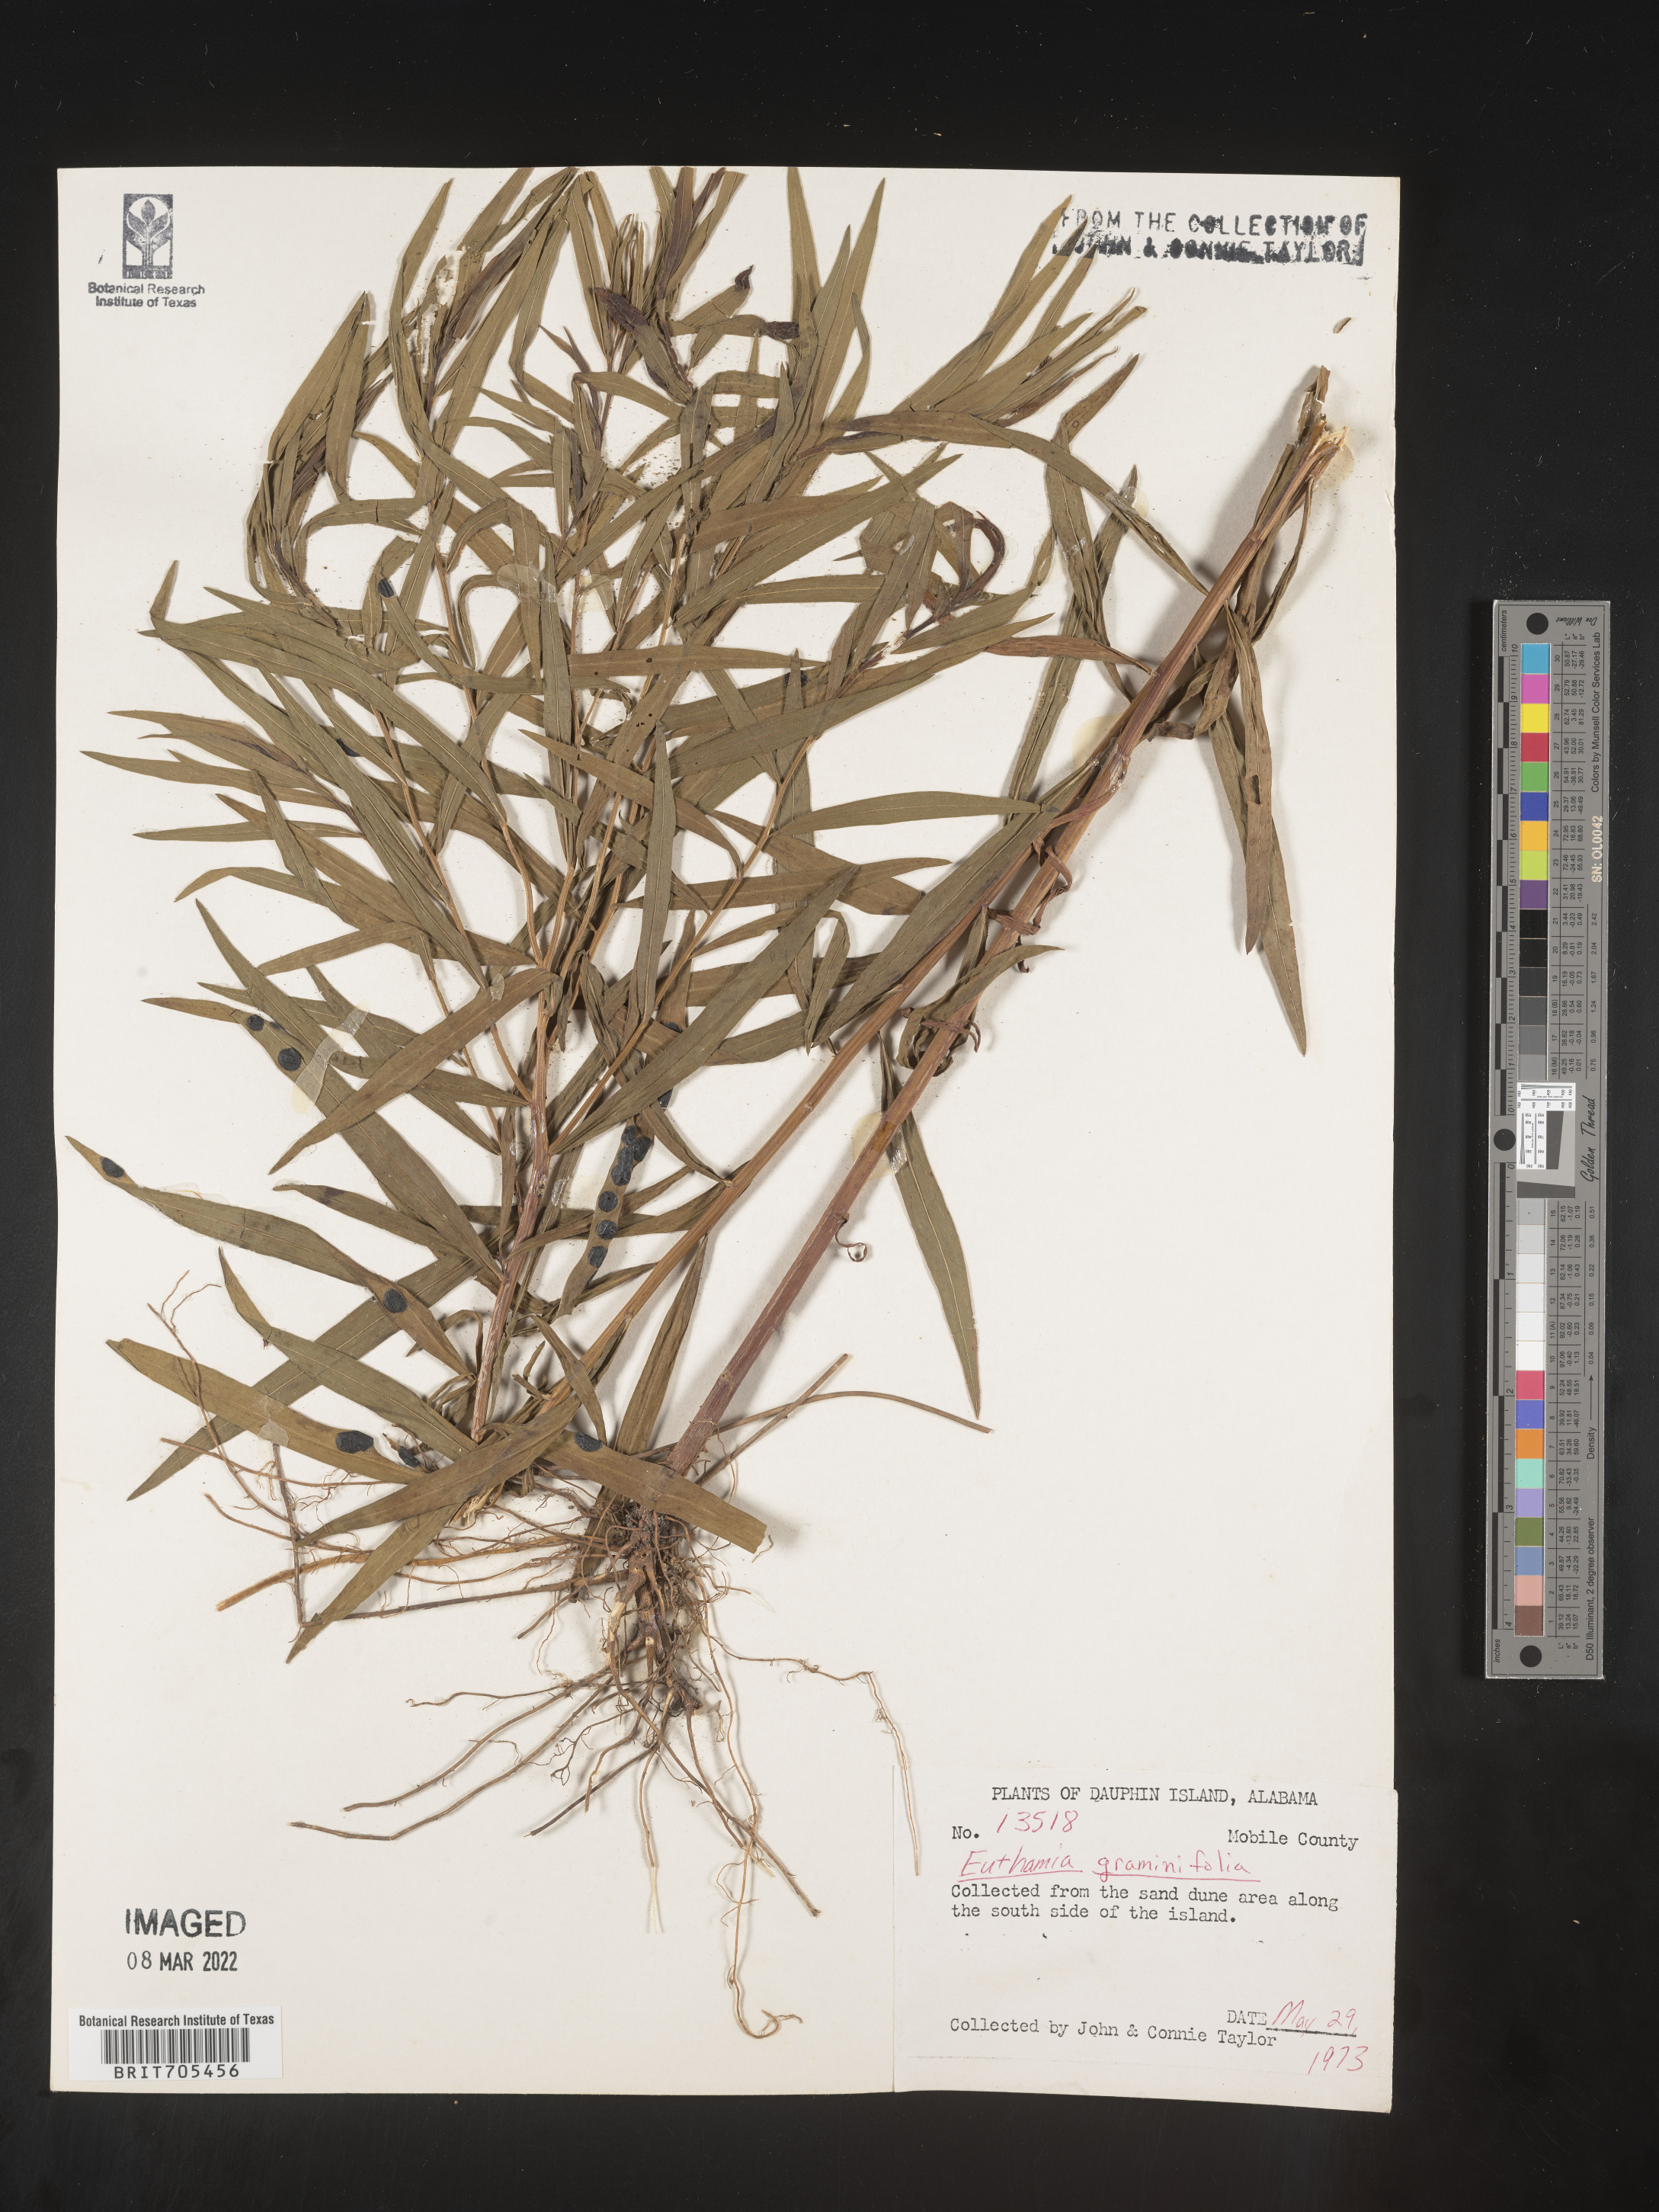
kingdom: Plantae
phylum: Tracheophyta
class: Magnoliopsida
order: Asterales
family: Asteraceae
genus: Euthamia
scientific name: Euthamia scabra
